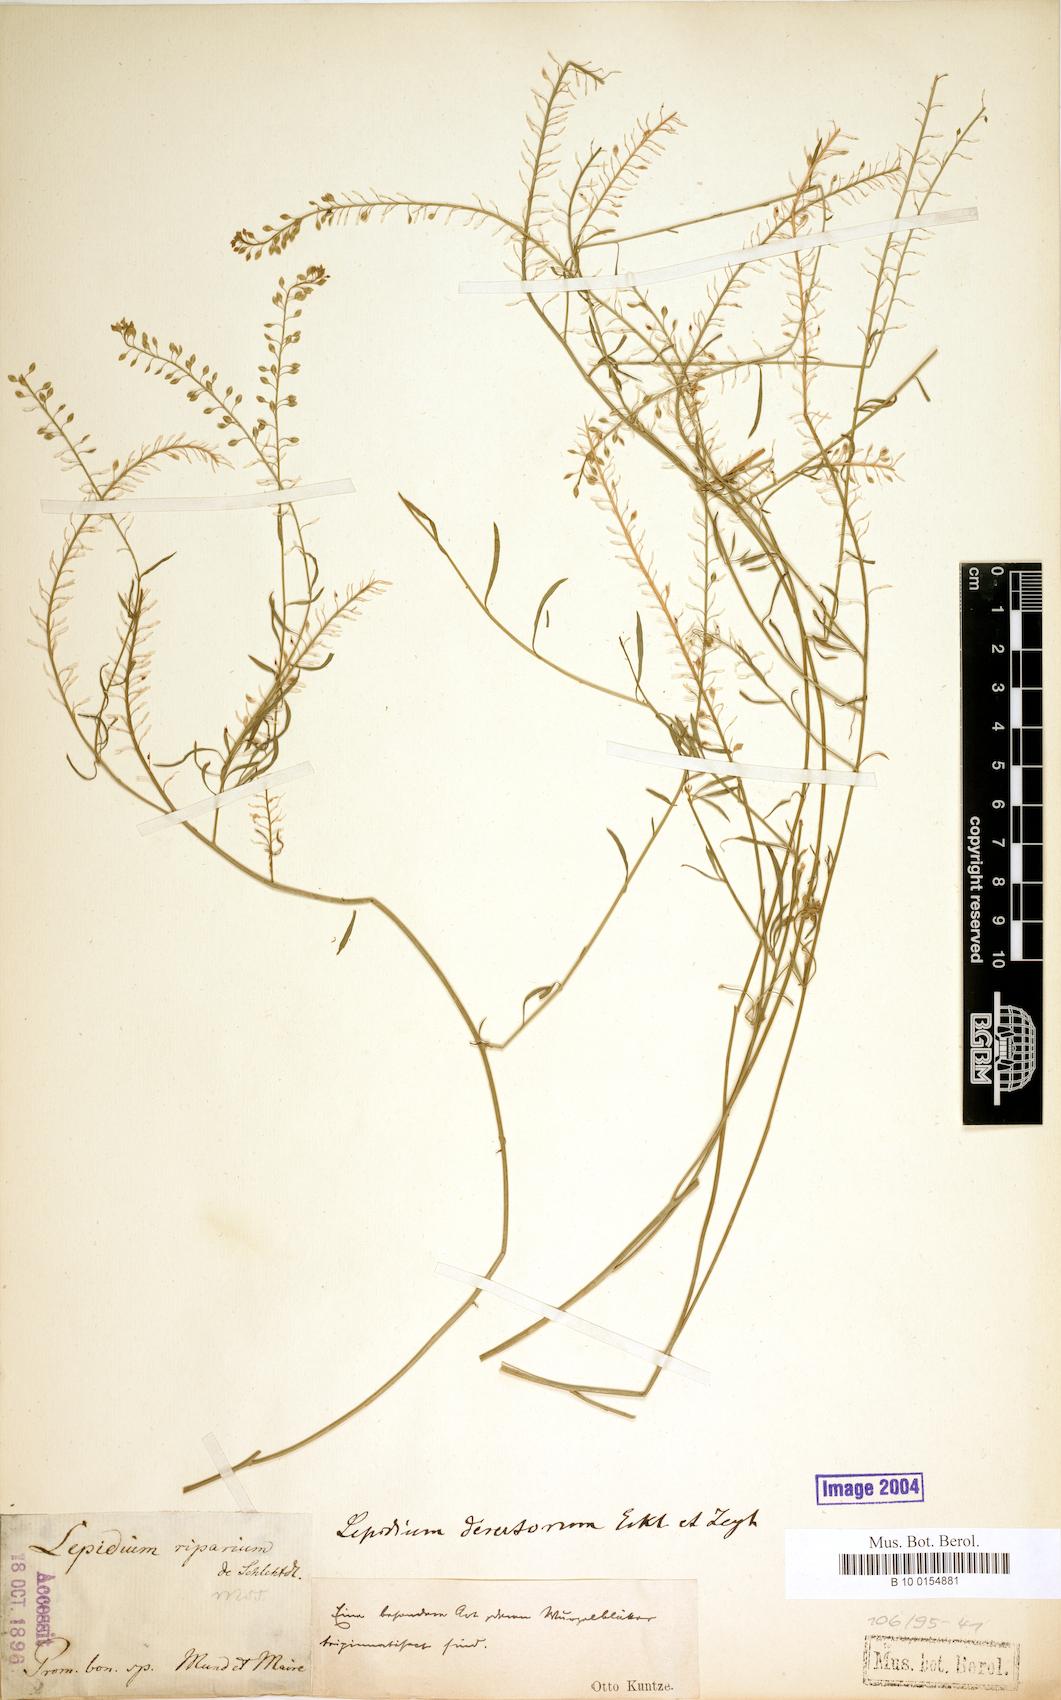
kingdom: Plantae
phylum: Tracheophyta
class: Magnoliopsida
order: Brassicales
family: Brassicaceae
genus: Lepidium
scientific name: Lepidium desertorum
